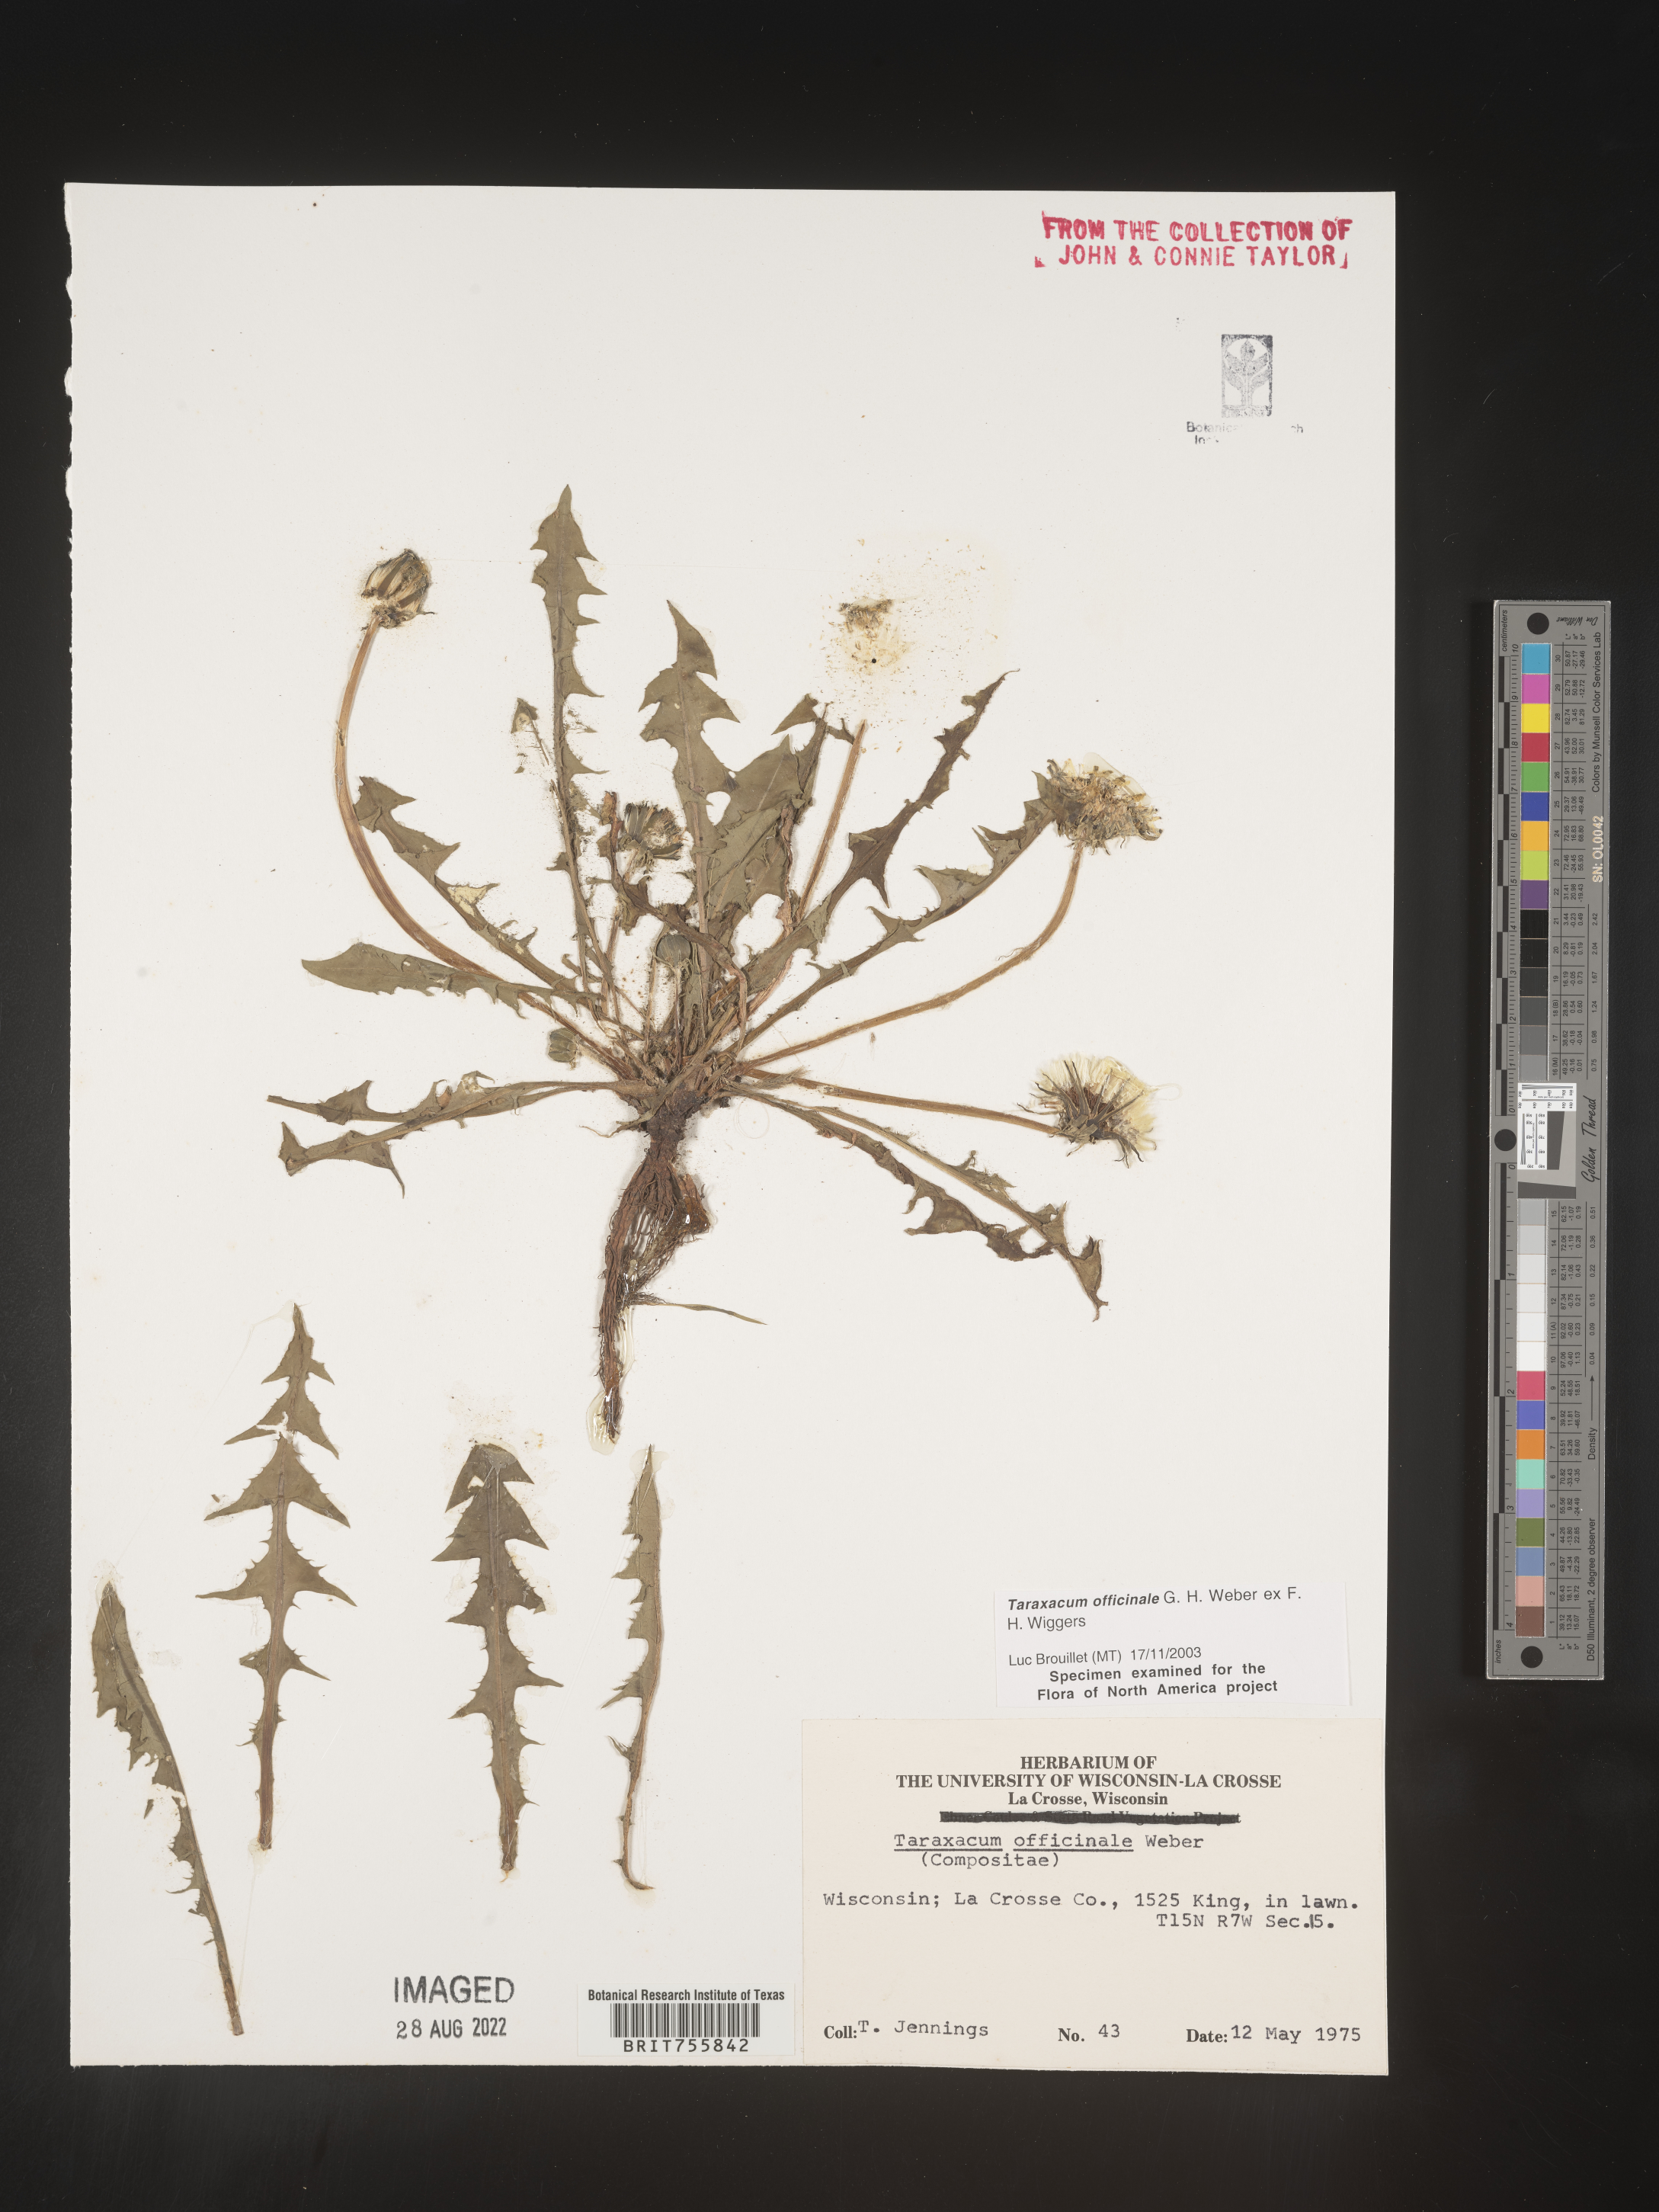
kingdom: Plantae
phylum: Tracheophyta
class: Magnoliopsida
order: Asterales
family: Asteraceae
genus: Taraxacum
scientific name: Taraxacum officinale
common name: Common dandelion
